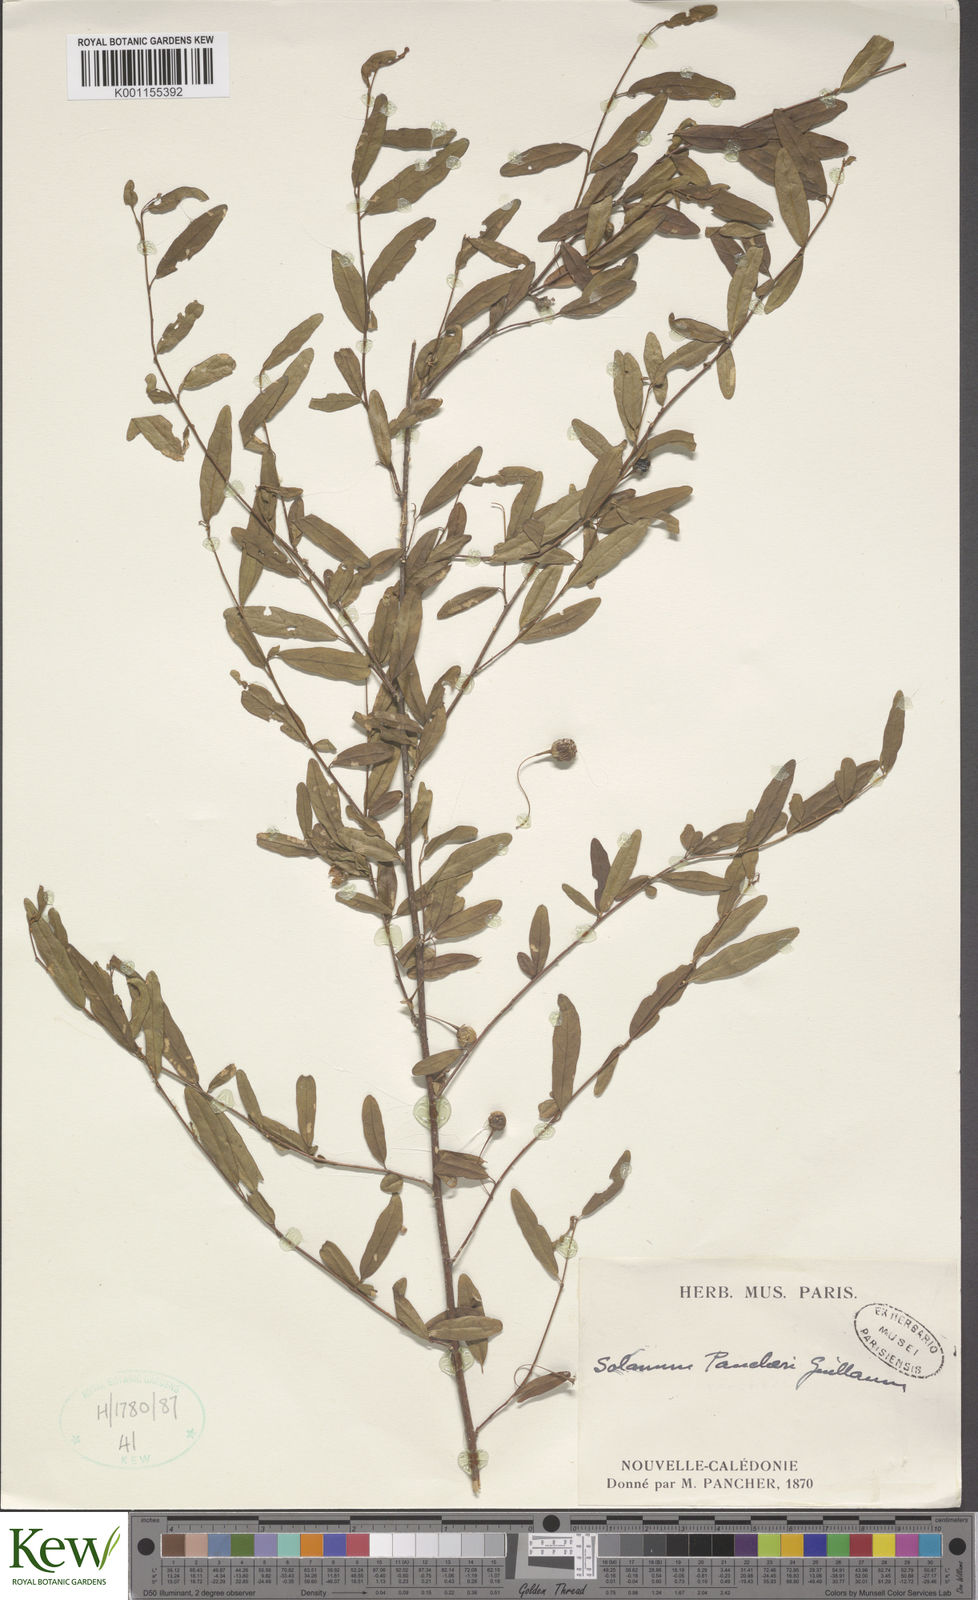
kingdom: Plantae
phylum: Tracheophyta
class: Magnoliopsida
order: Solanales
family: Solanaceae
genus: Solanum
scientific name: Solanum pancheri
